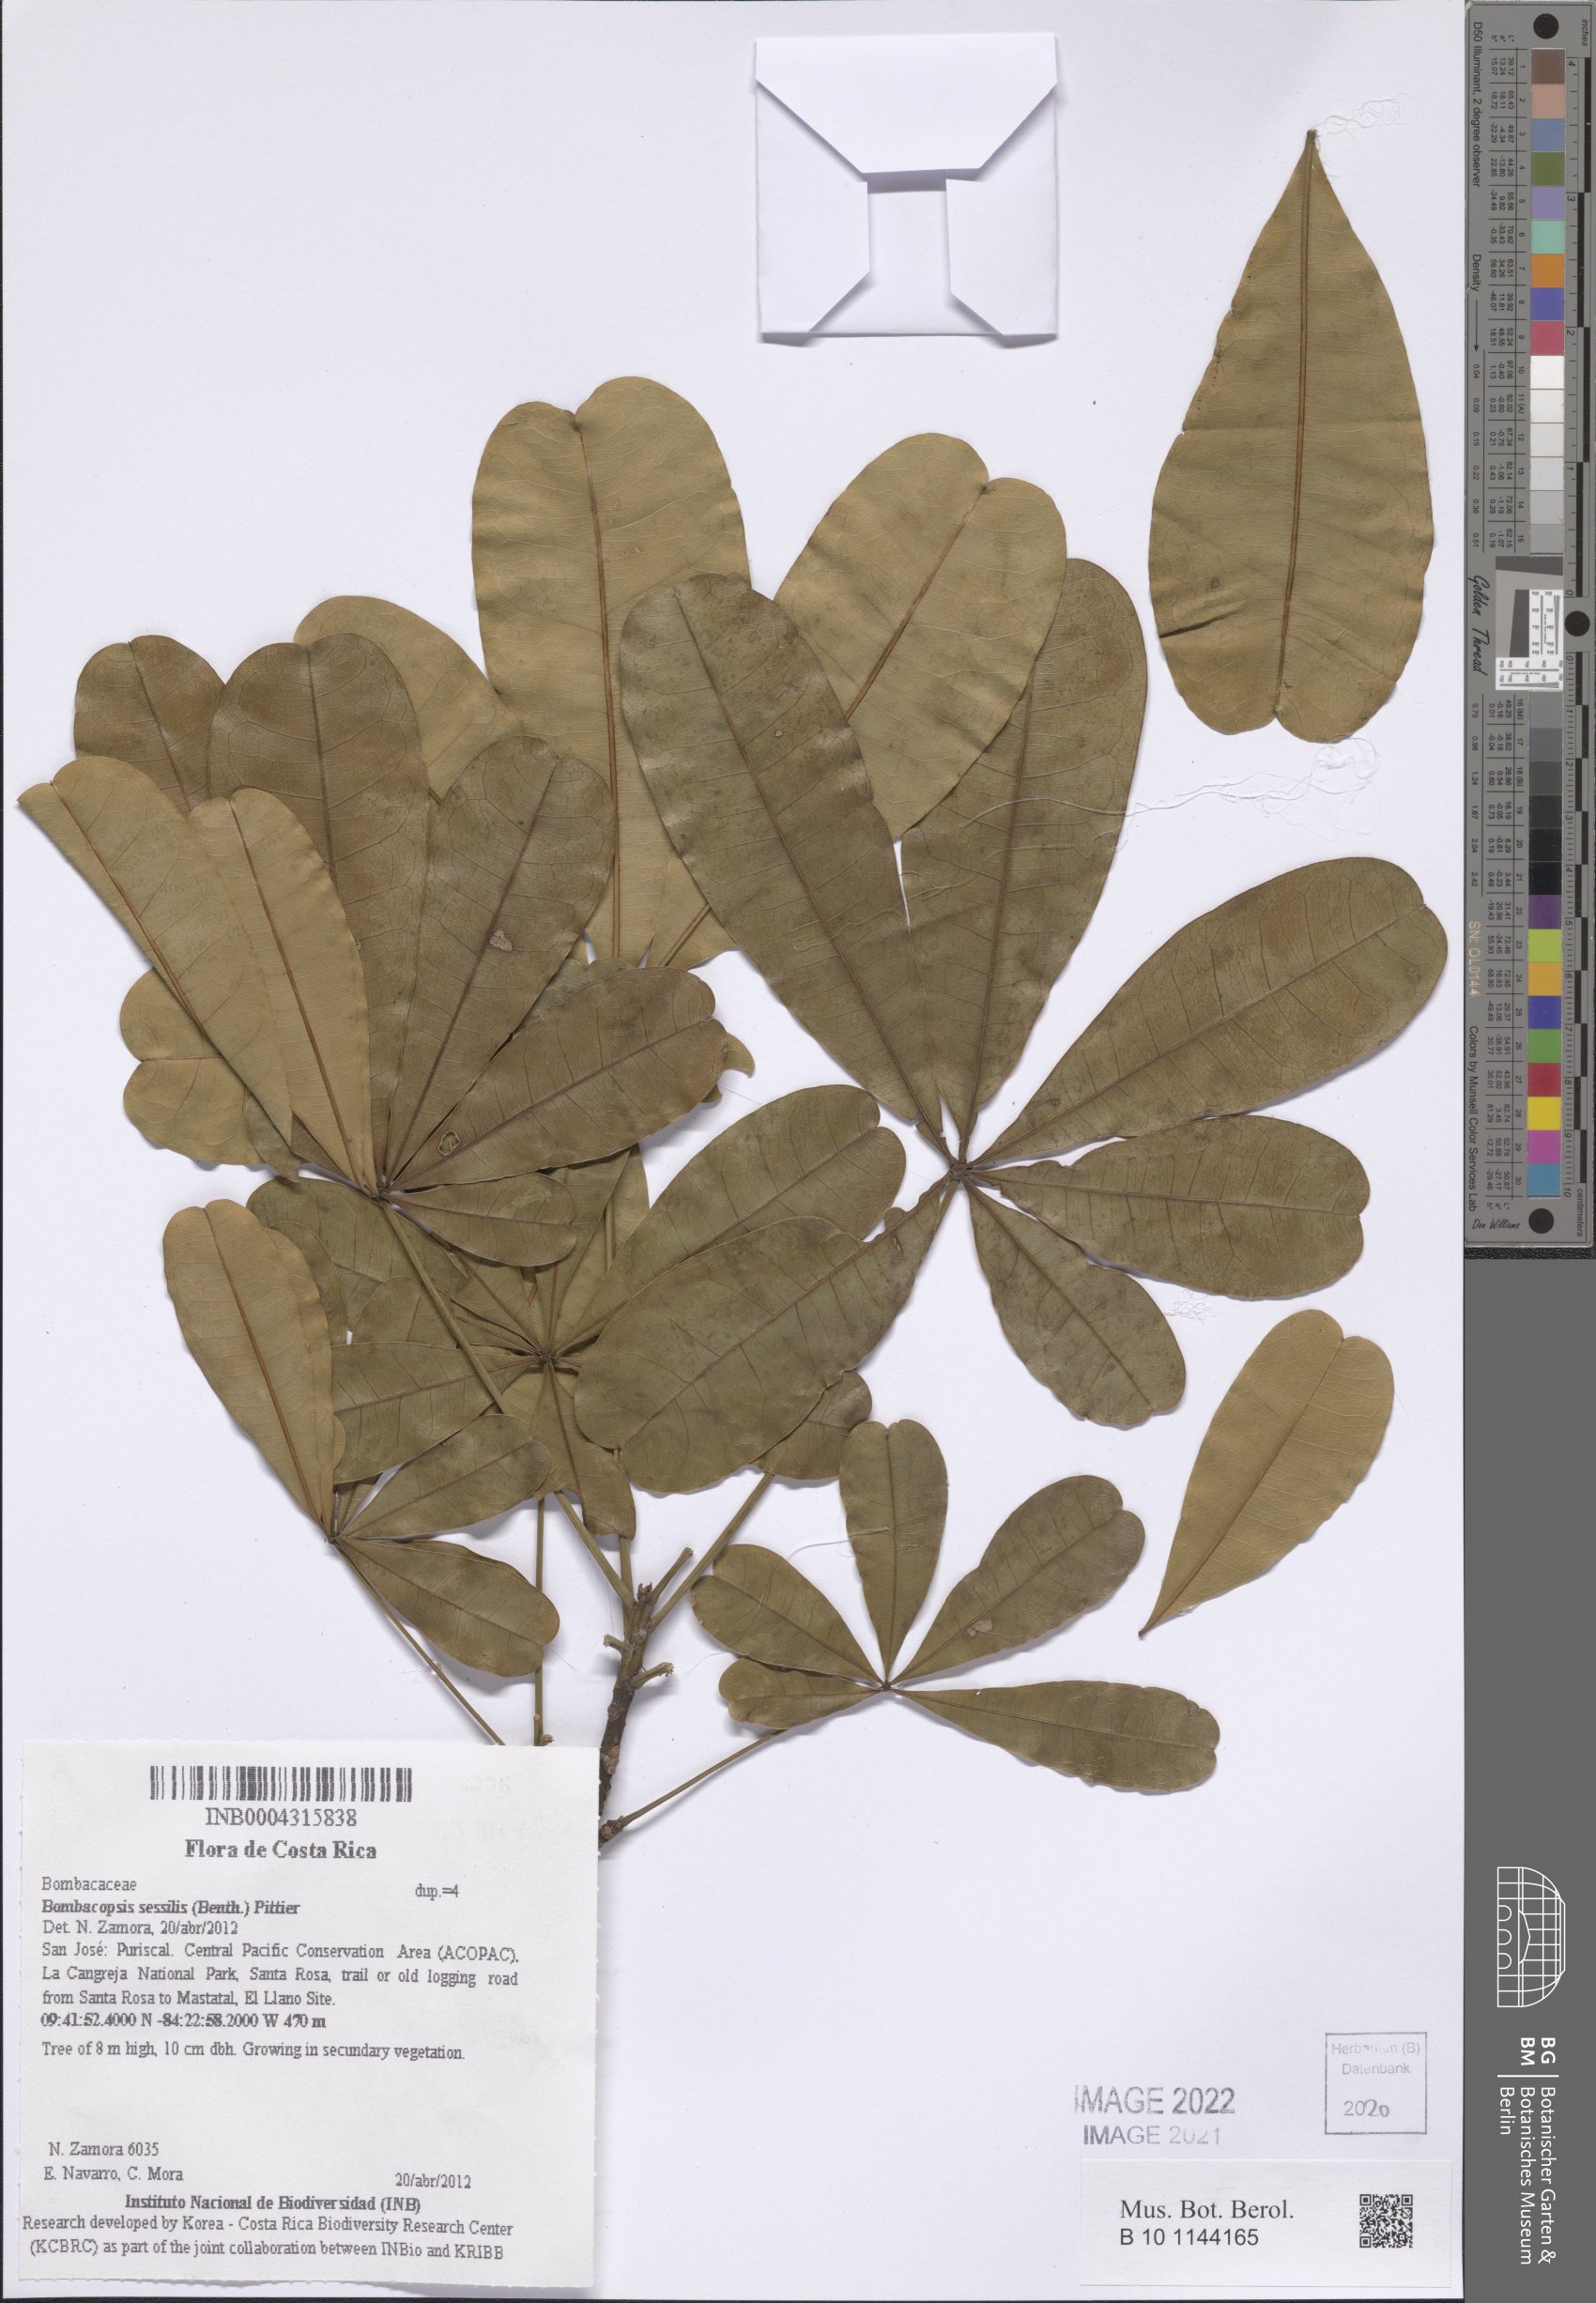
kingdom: Plantae
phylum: Tracheophyta
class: Magnoliopsida
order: Malvales
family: Malvaceae
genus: Pachira
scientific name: Pachira sessilis
